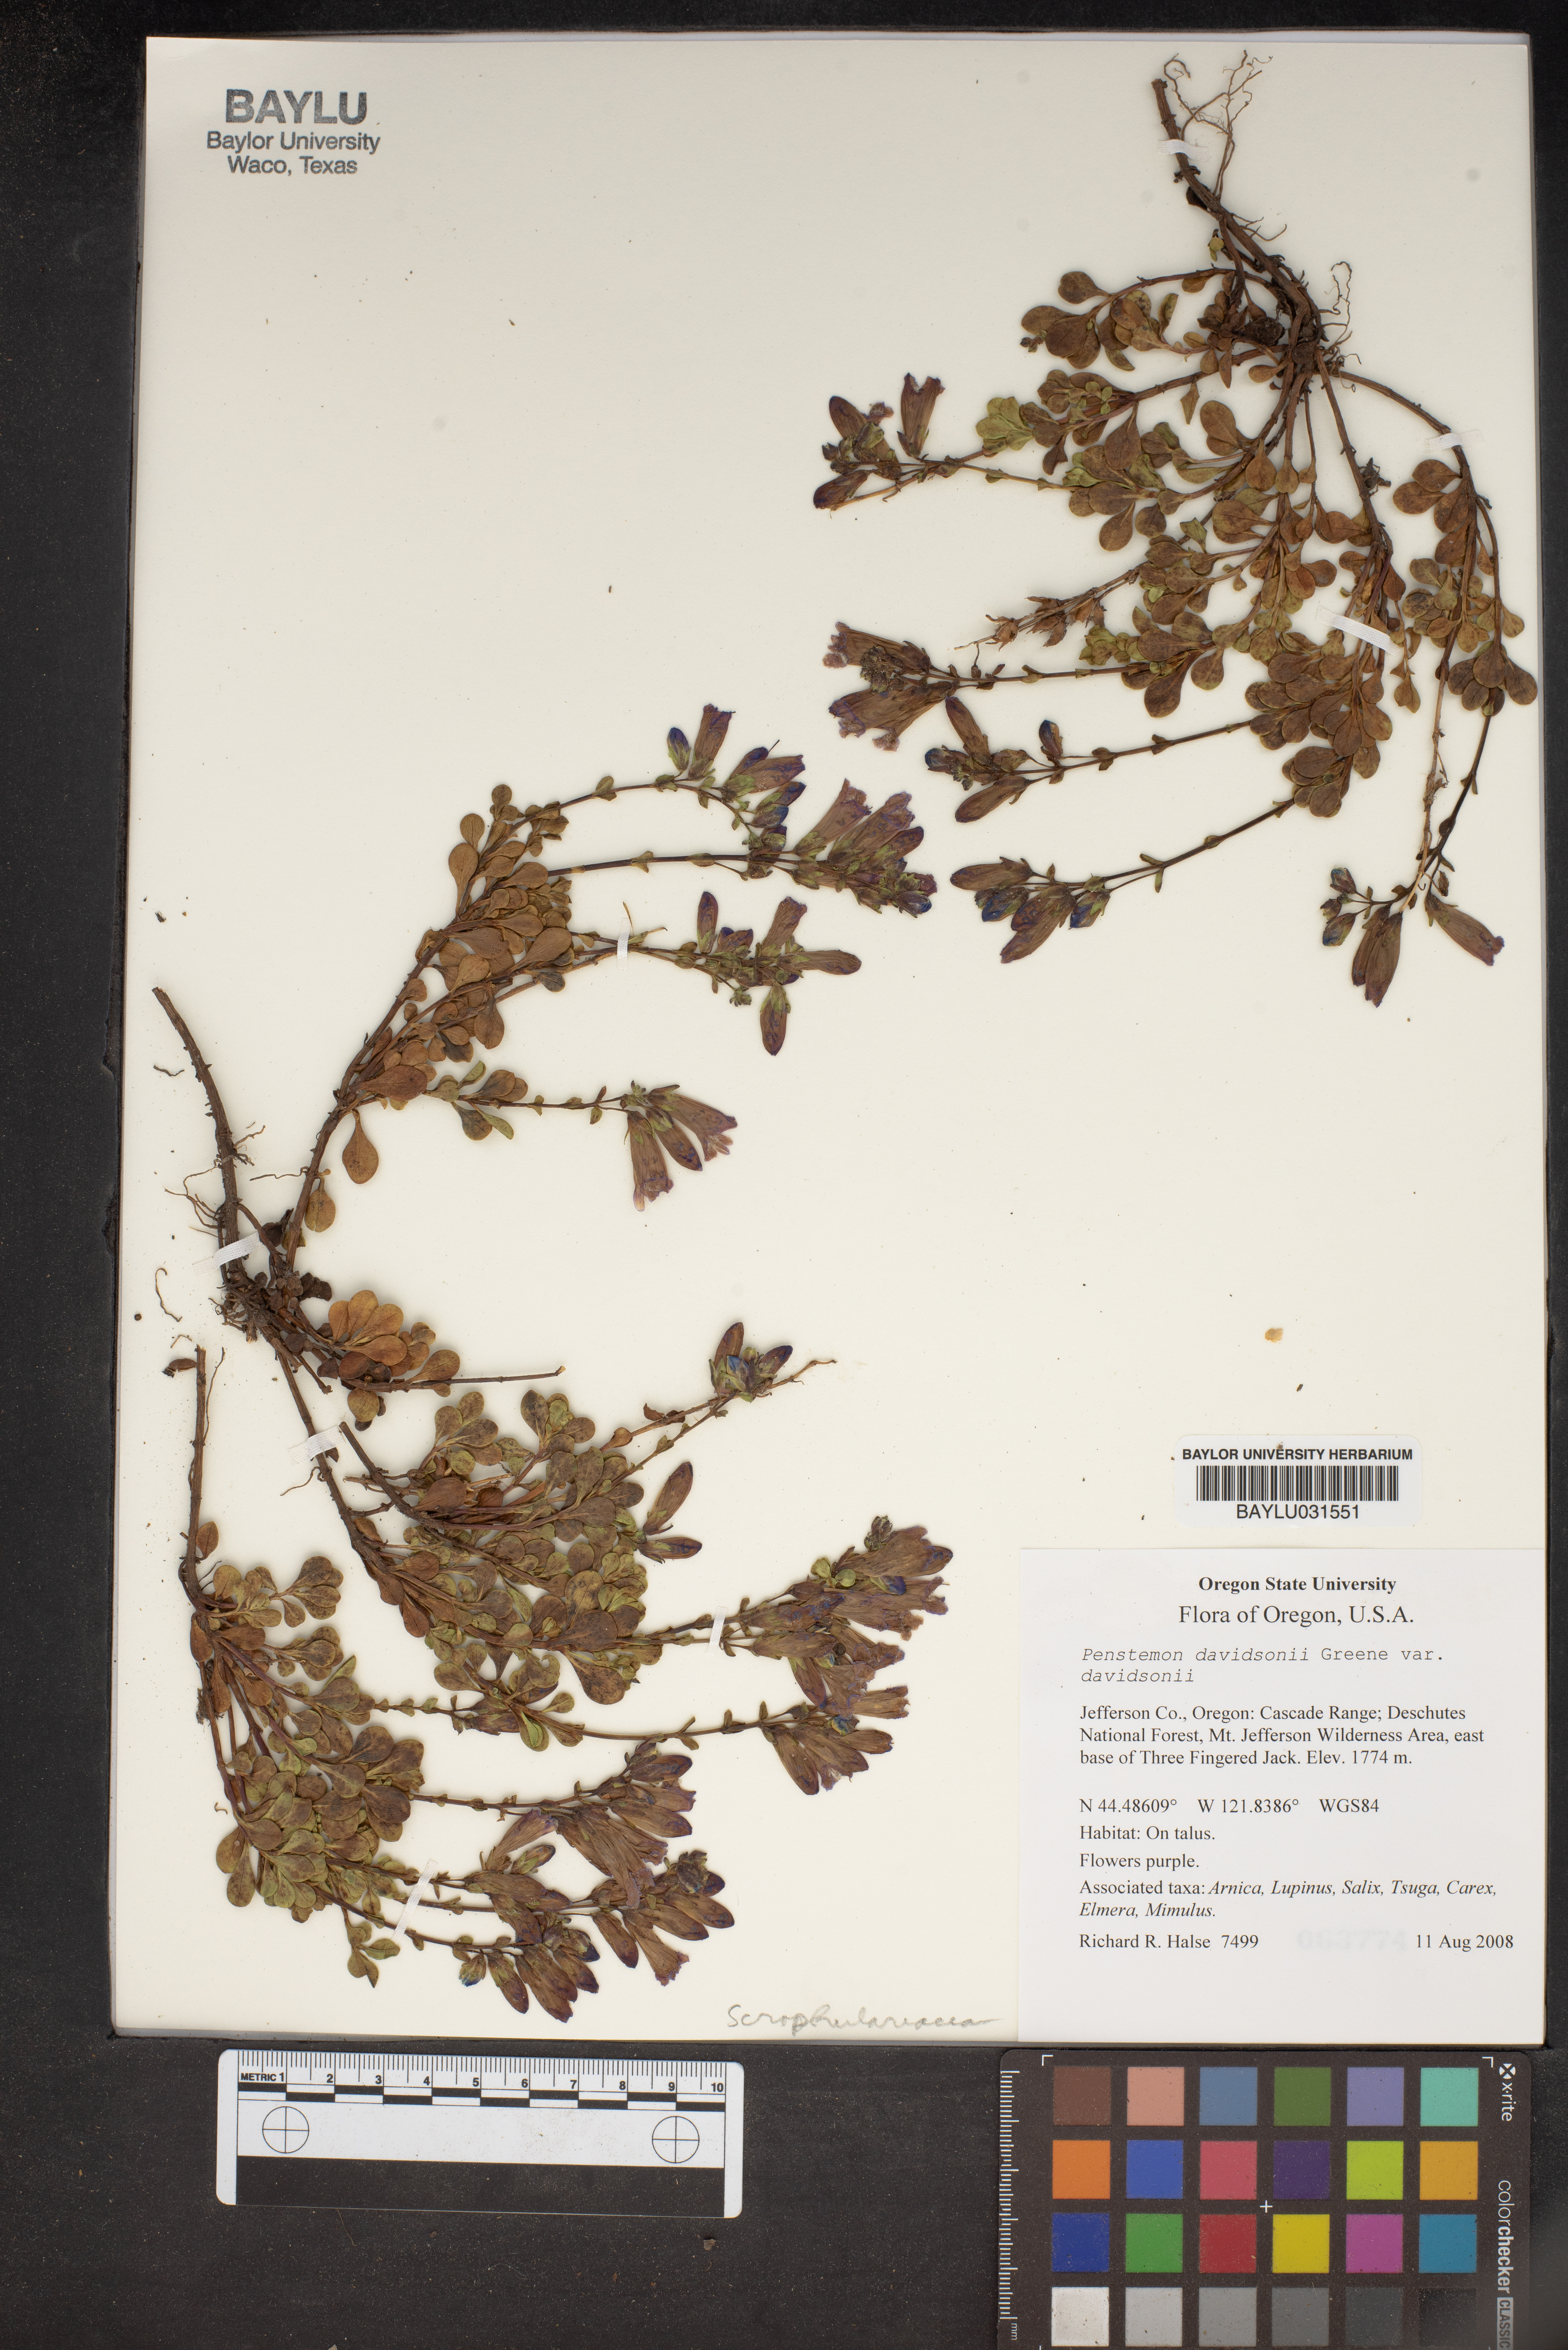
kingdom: Plantae
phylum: Tracheophyta
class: Magnoliopsida
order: Lamiales
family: Plantaginaceae
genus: Penstemon
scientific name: Penstemon davidsonii
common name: Davidson's penstemon
